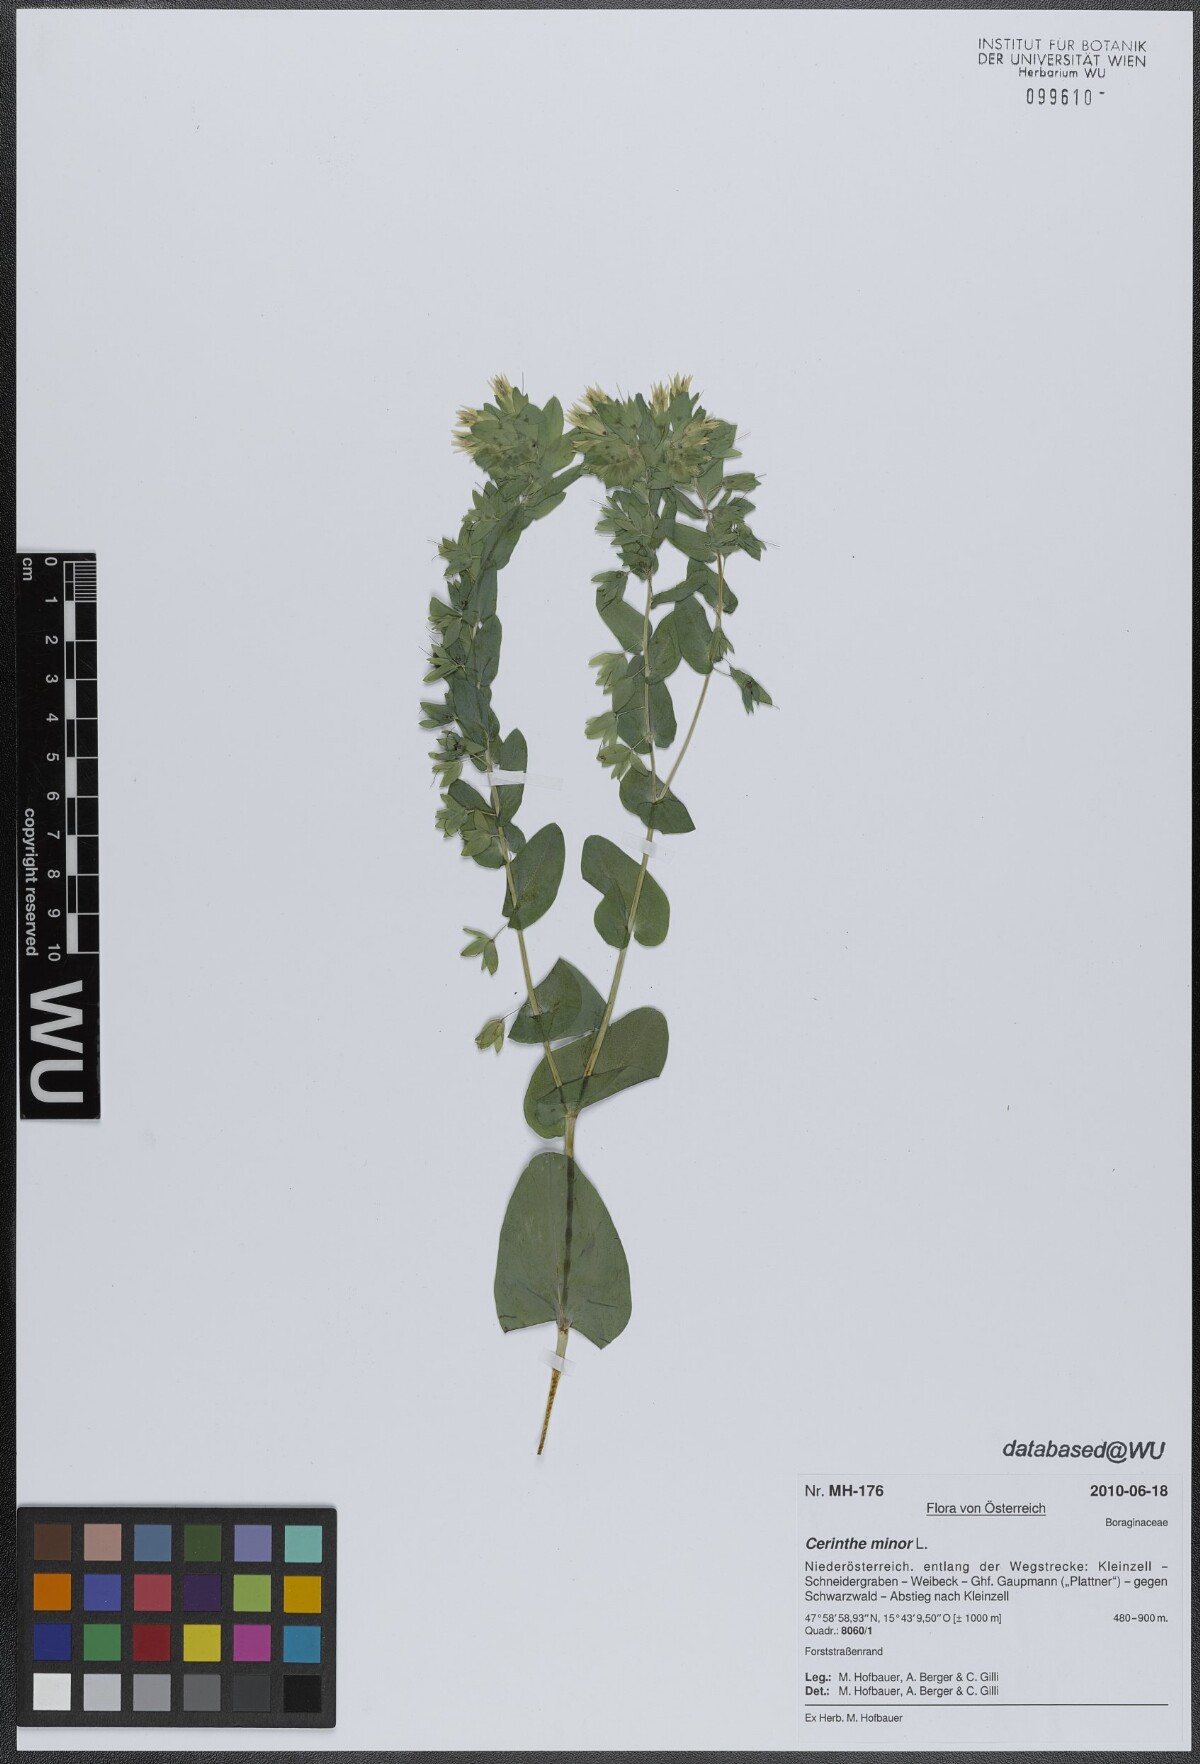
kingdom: Plantae
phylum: Tracheophyta
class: Magnoliopsida
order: Boraginales
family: Boraginaceae
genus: Cerinthe
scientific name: Cerinthe minor
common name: Lesser honeywort
